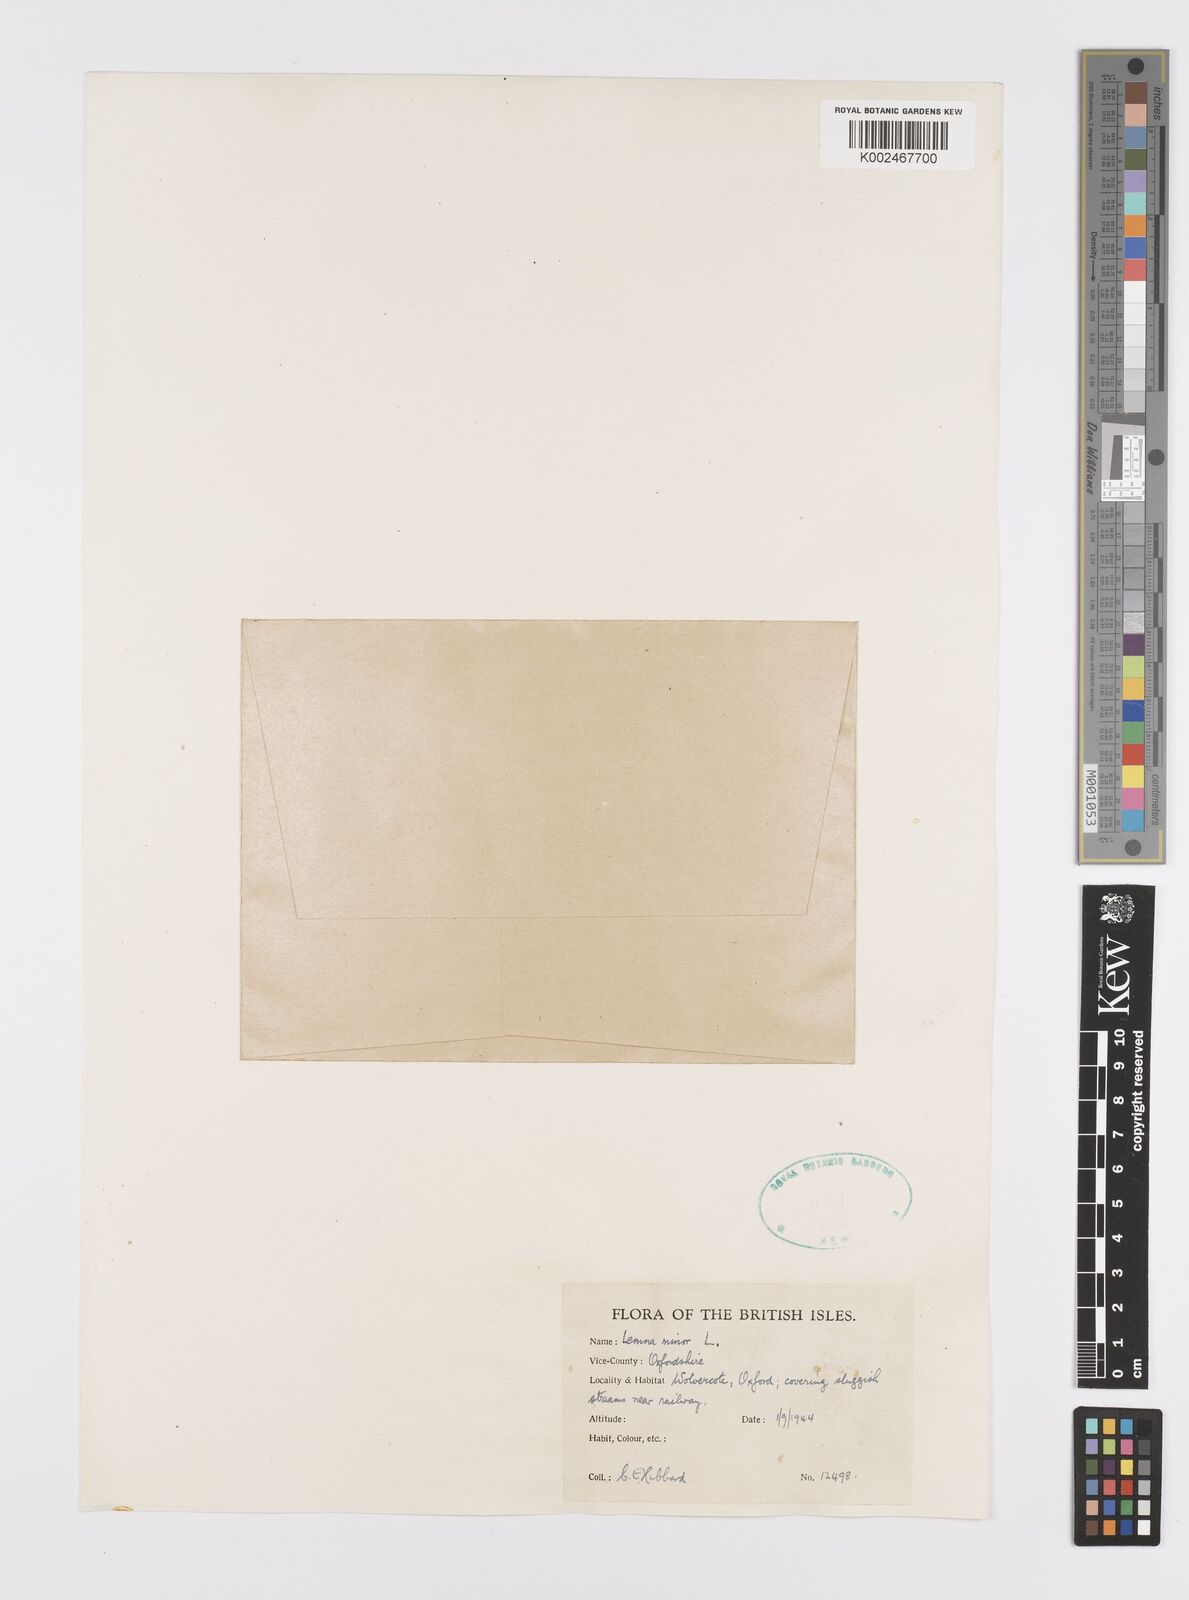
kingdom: Plantae
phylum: Tracheophyta
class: Liliopsida
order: Alismatales
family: Araceae
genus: Lemna
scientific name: Lemna minor
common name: Common duckweed
